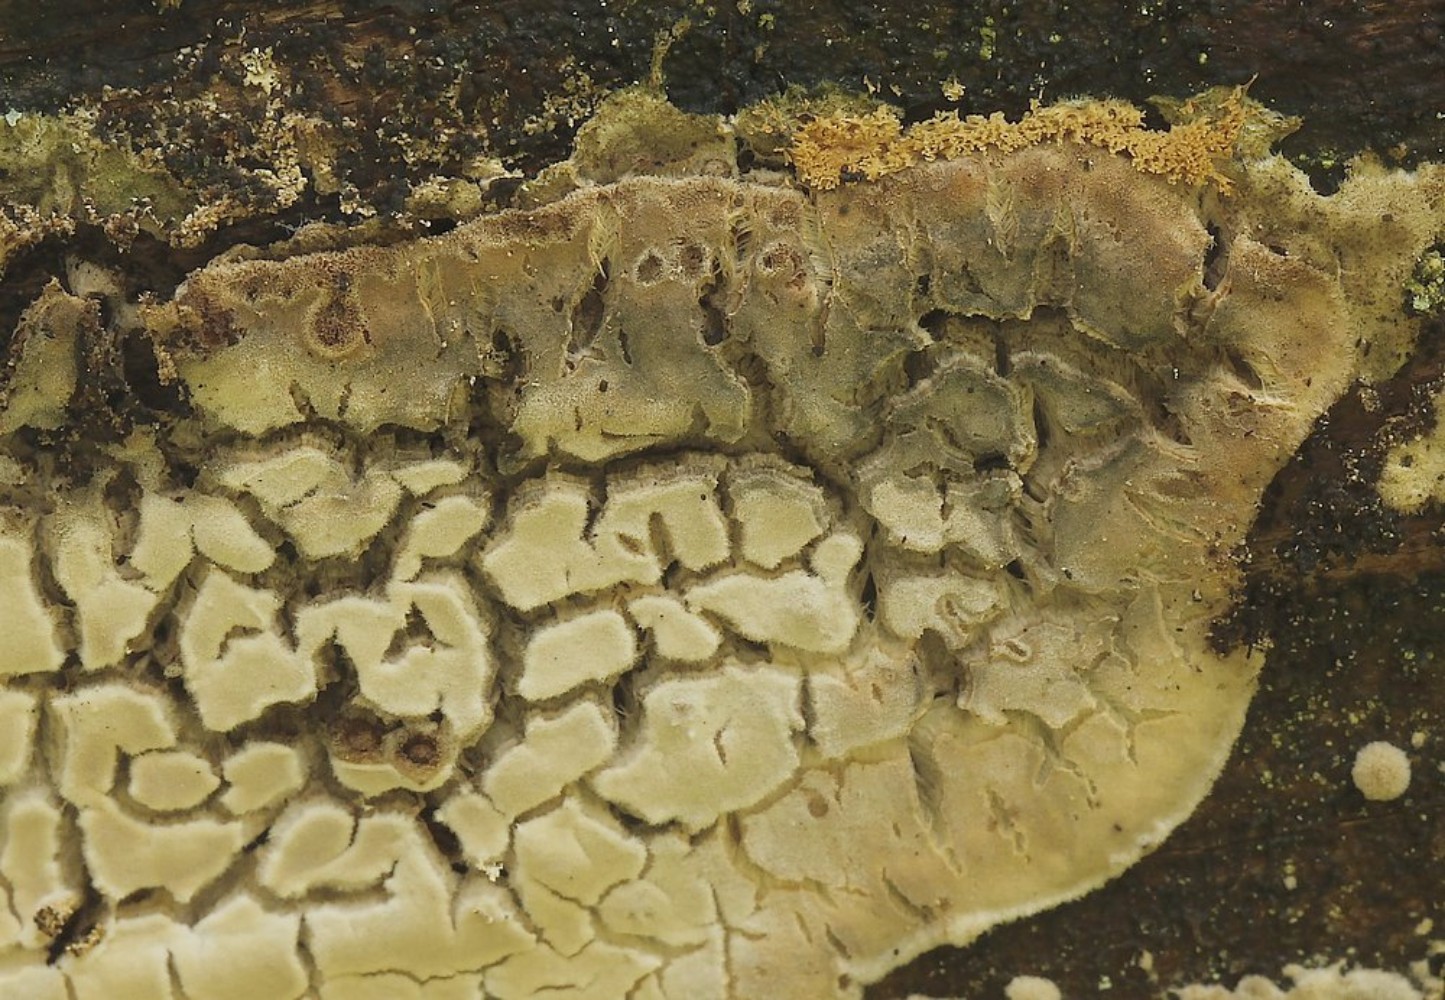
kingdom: Fungi
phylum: Basidiomycota
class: Agaricomycetes
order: Polyporales
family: Dacryobolaceae
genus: Dacryobolus
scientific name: Dacryobolus karstenii
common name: glat vulkanskorpe
